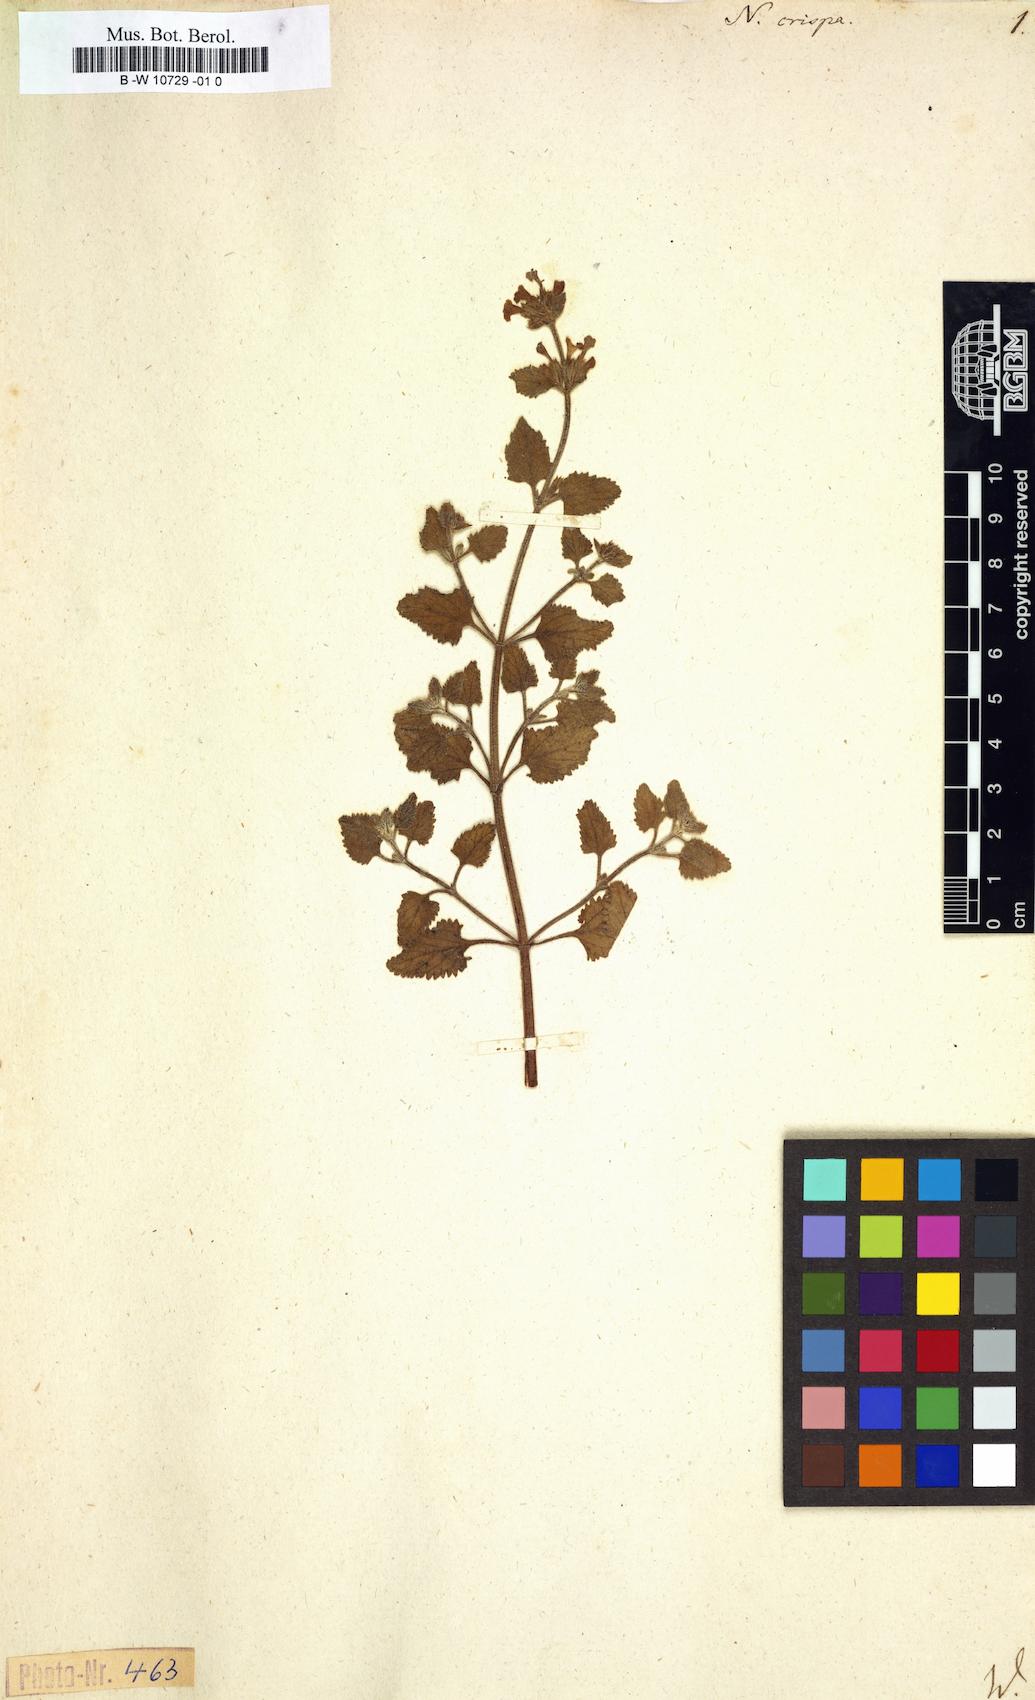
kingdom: Plantae
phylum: Tracheophyta
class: Magnoliopsida
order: Lamiales
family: Lamiaceae
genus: Nepeta
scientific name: Nepeta crispa
